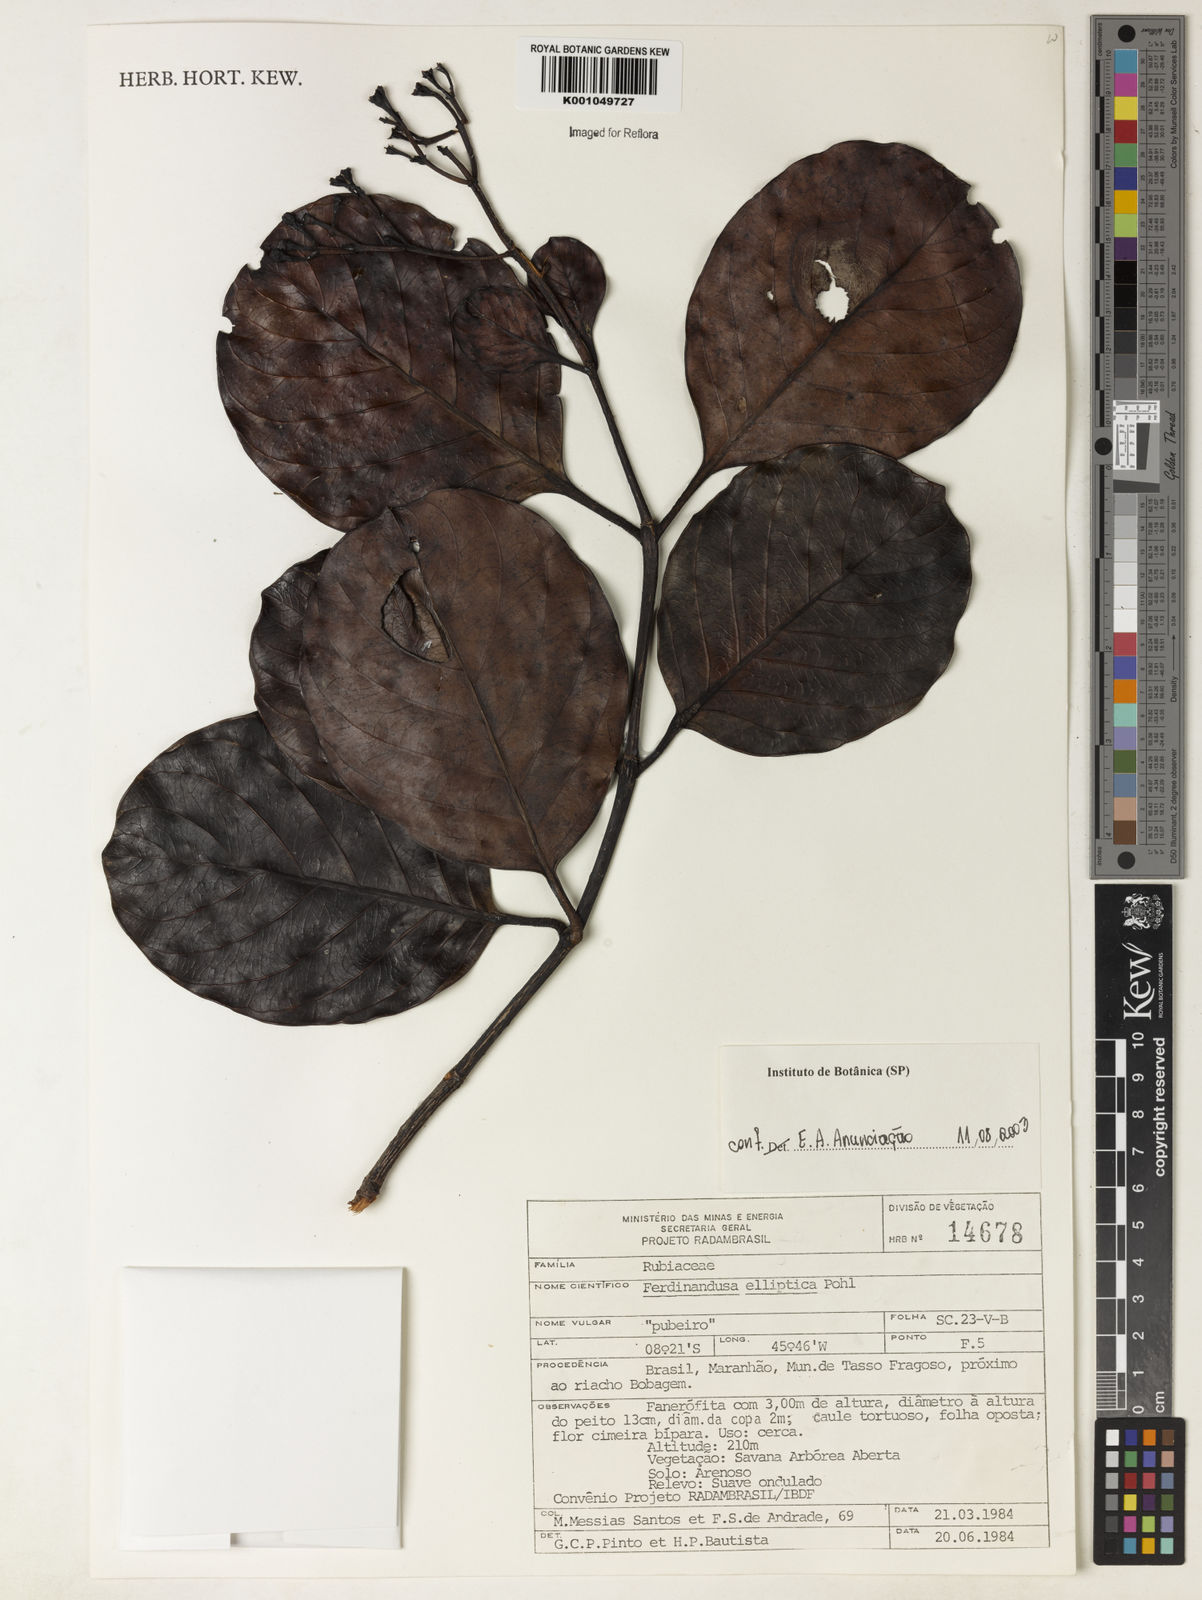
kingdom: Plantae
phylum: Tracheophyta
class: Magnoliopsida
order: Gentianales
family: Rubiaceae
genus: Ferdinandusa
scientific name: Ferdinandusa elliptica
